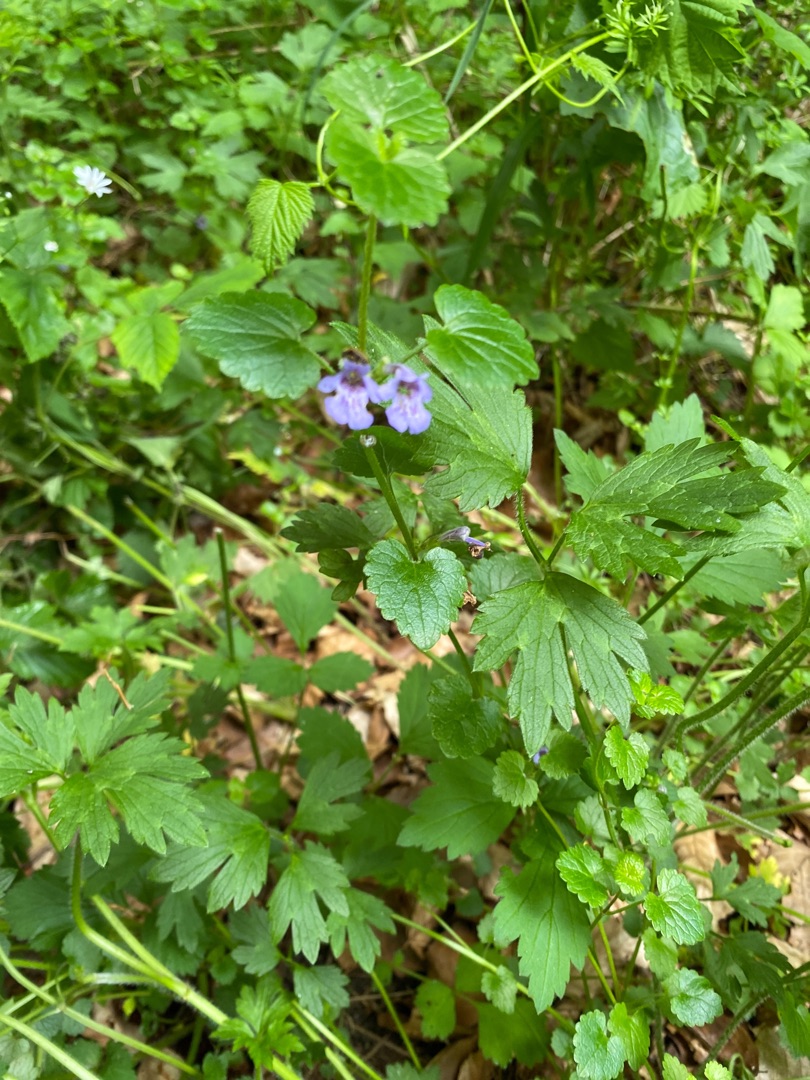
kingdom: Plantae
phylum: Tracheophyta
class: Magnoliopsida
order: Lamiales
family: Lamiaceae
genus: Glechoma
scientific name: Glechoma hederacea
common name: Korsknap
